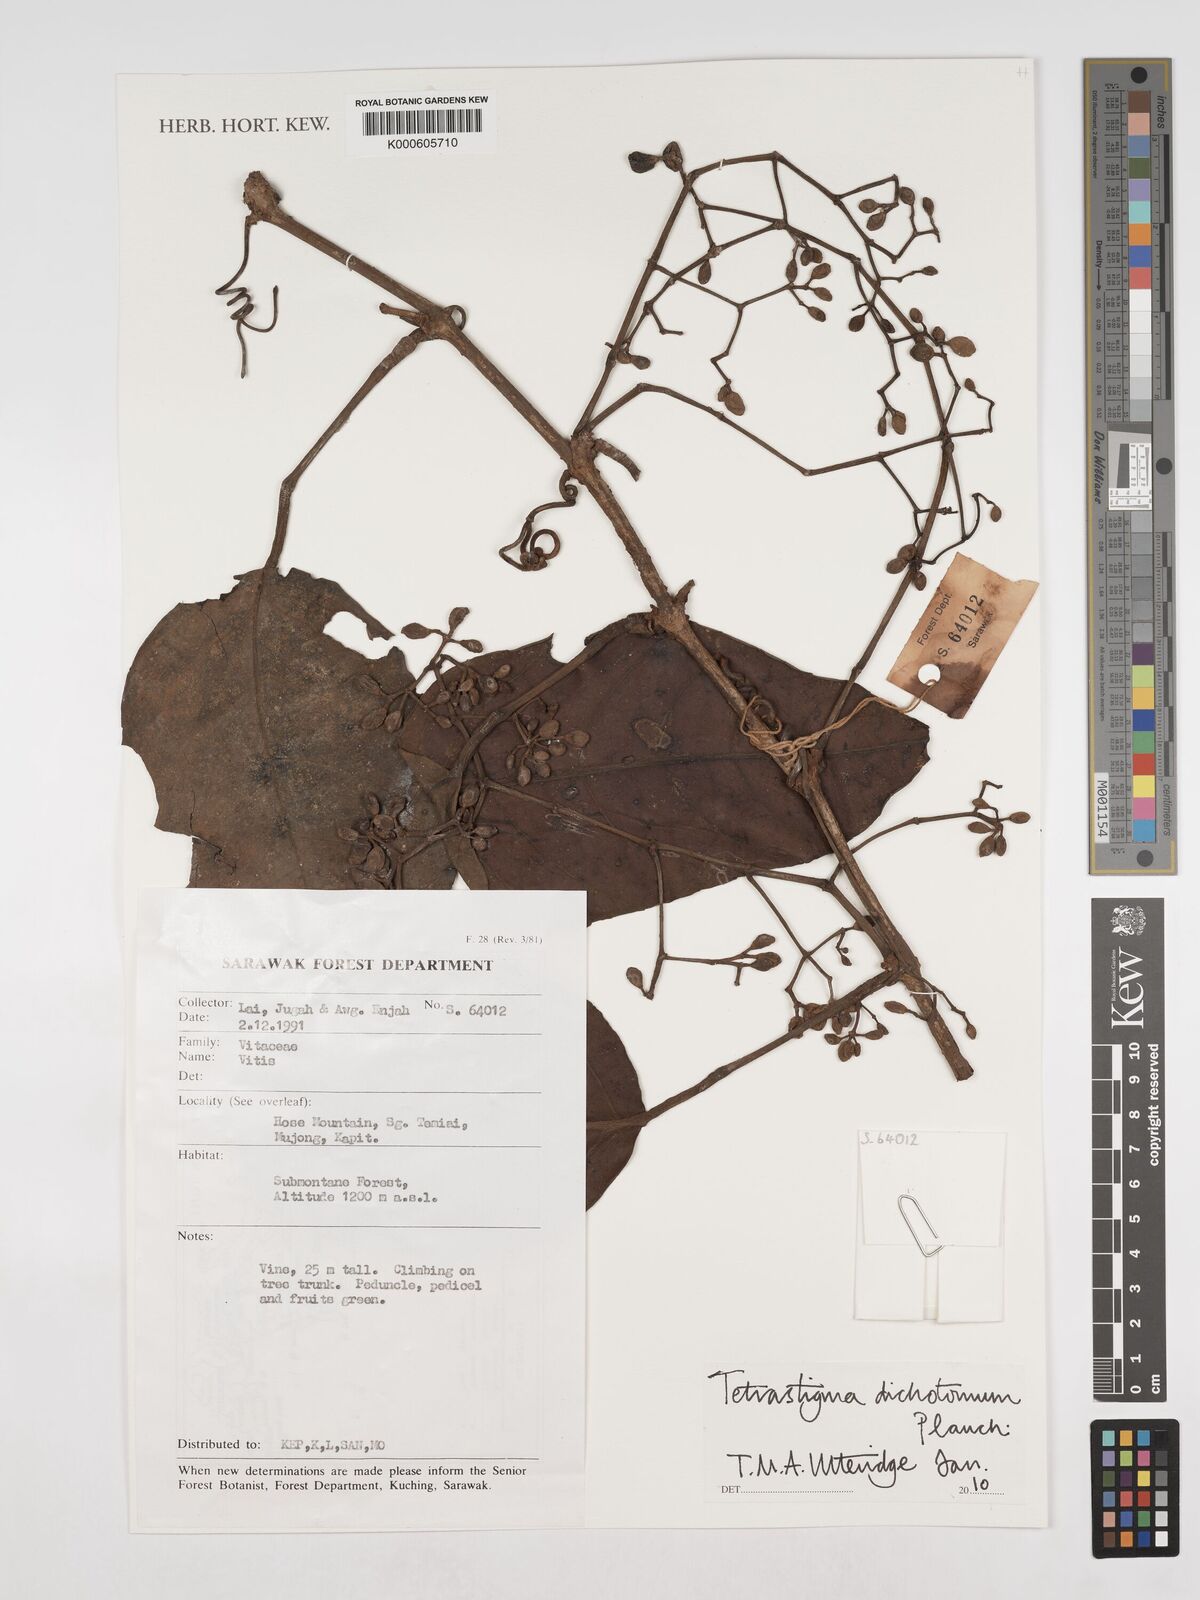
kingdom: Plantae
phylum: Tracheophyta
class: Magnoliopsida
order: Vitales
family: Vitaceae
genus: Tetrastigma
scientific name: Tetrastigma dichotomum
